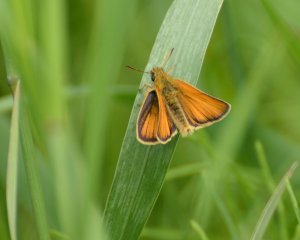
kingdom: Animalia
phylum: Arthropoda
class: Insecta
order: Lepidoptera
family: Hesperiidae
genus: Thymelicus
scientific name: Thymelicus lineola
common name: European Skipper
